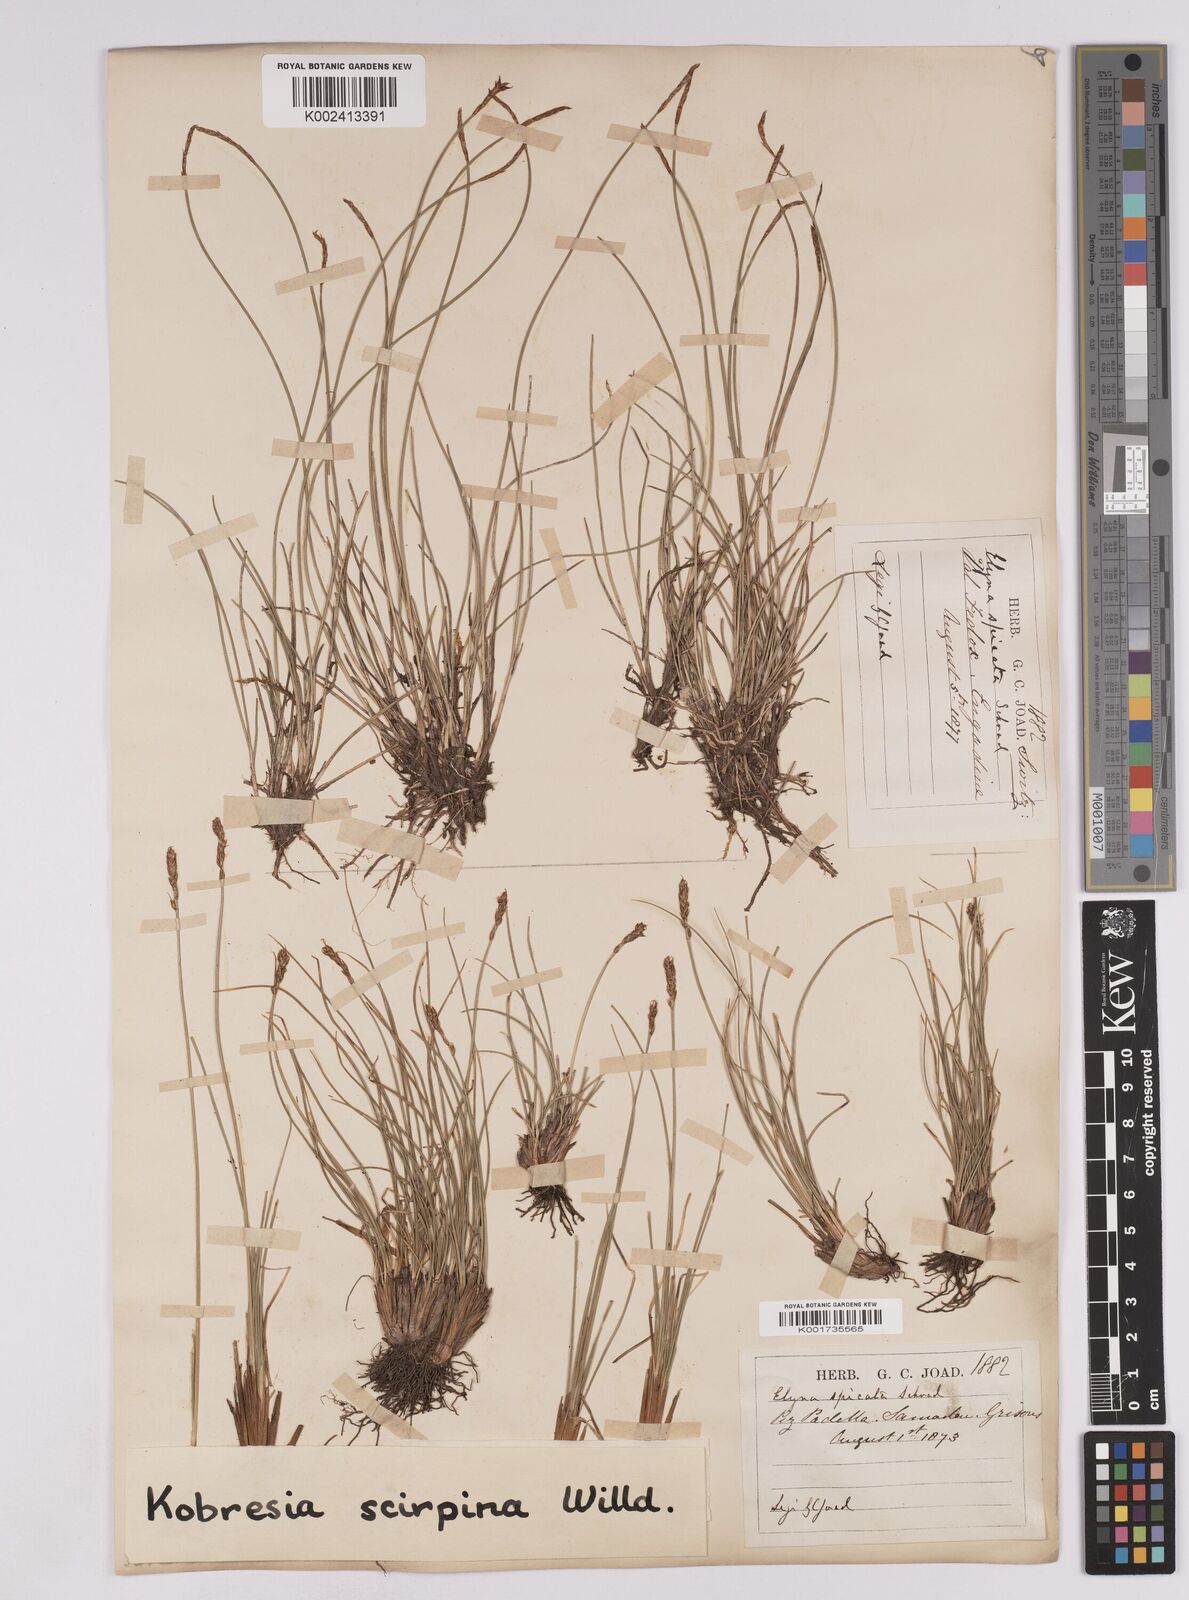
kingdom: Plantae
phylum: Tracheophyta
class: Liliopsida
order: Poales
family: Cyperaceae
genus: Carex
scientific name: Carex myosuroides
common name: Bellard's bog sedge
